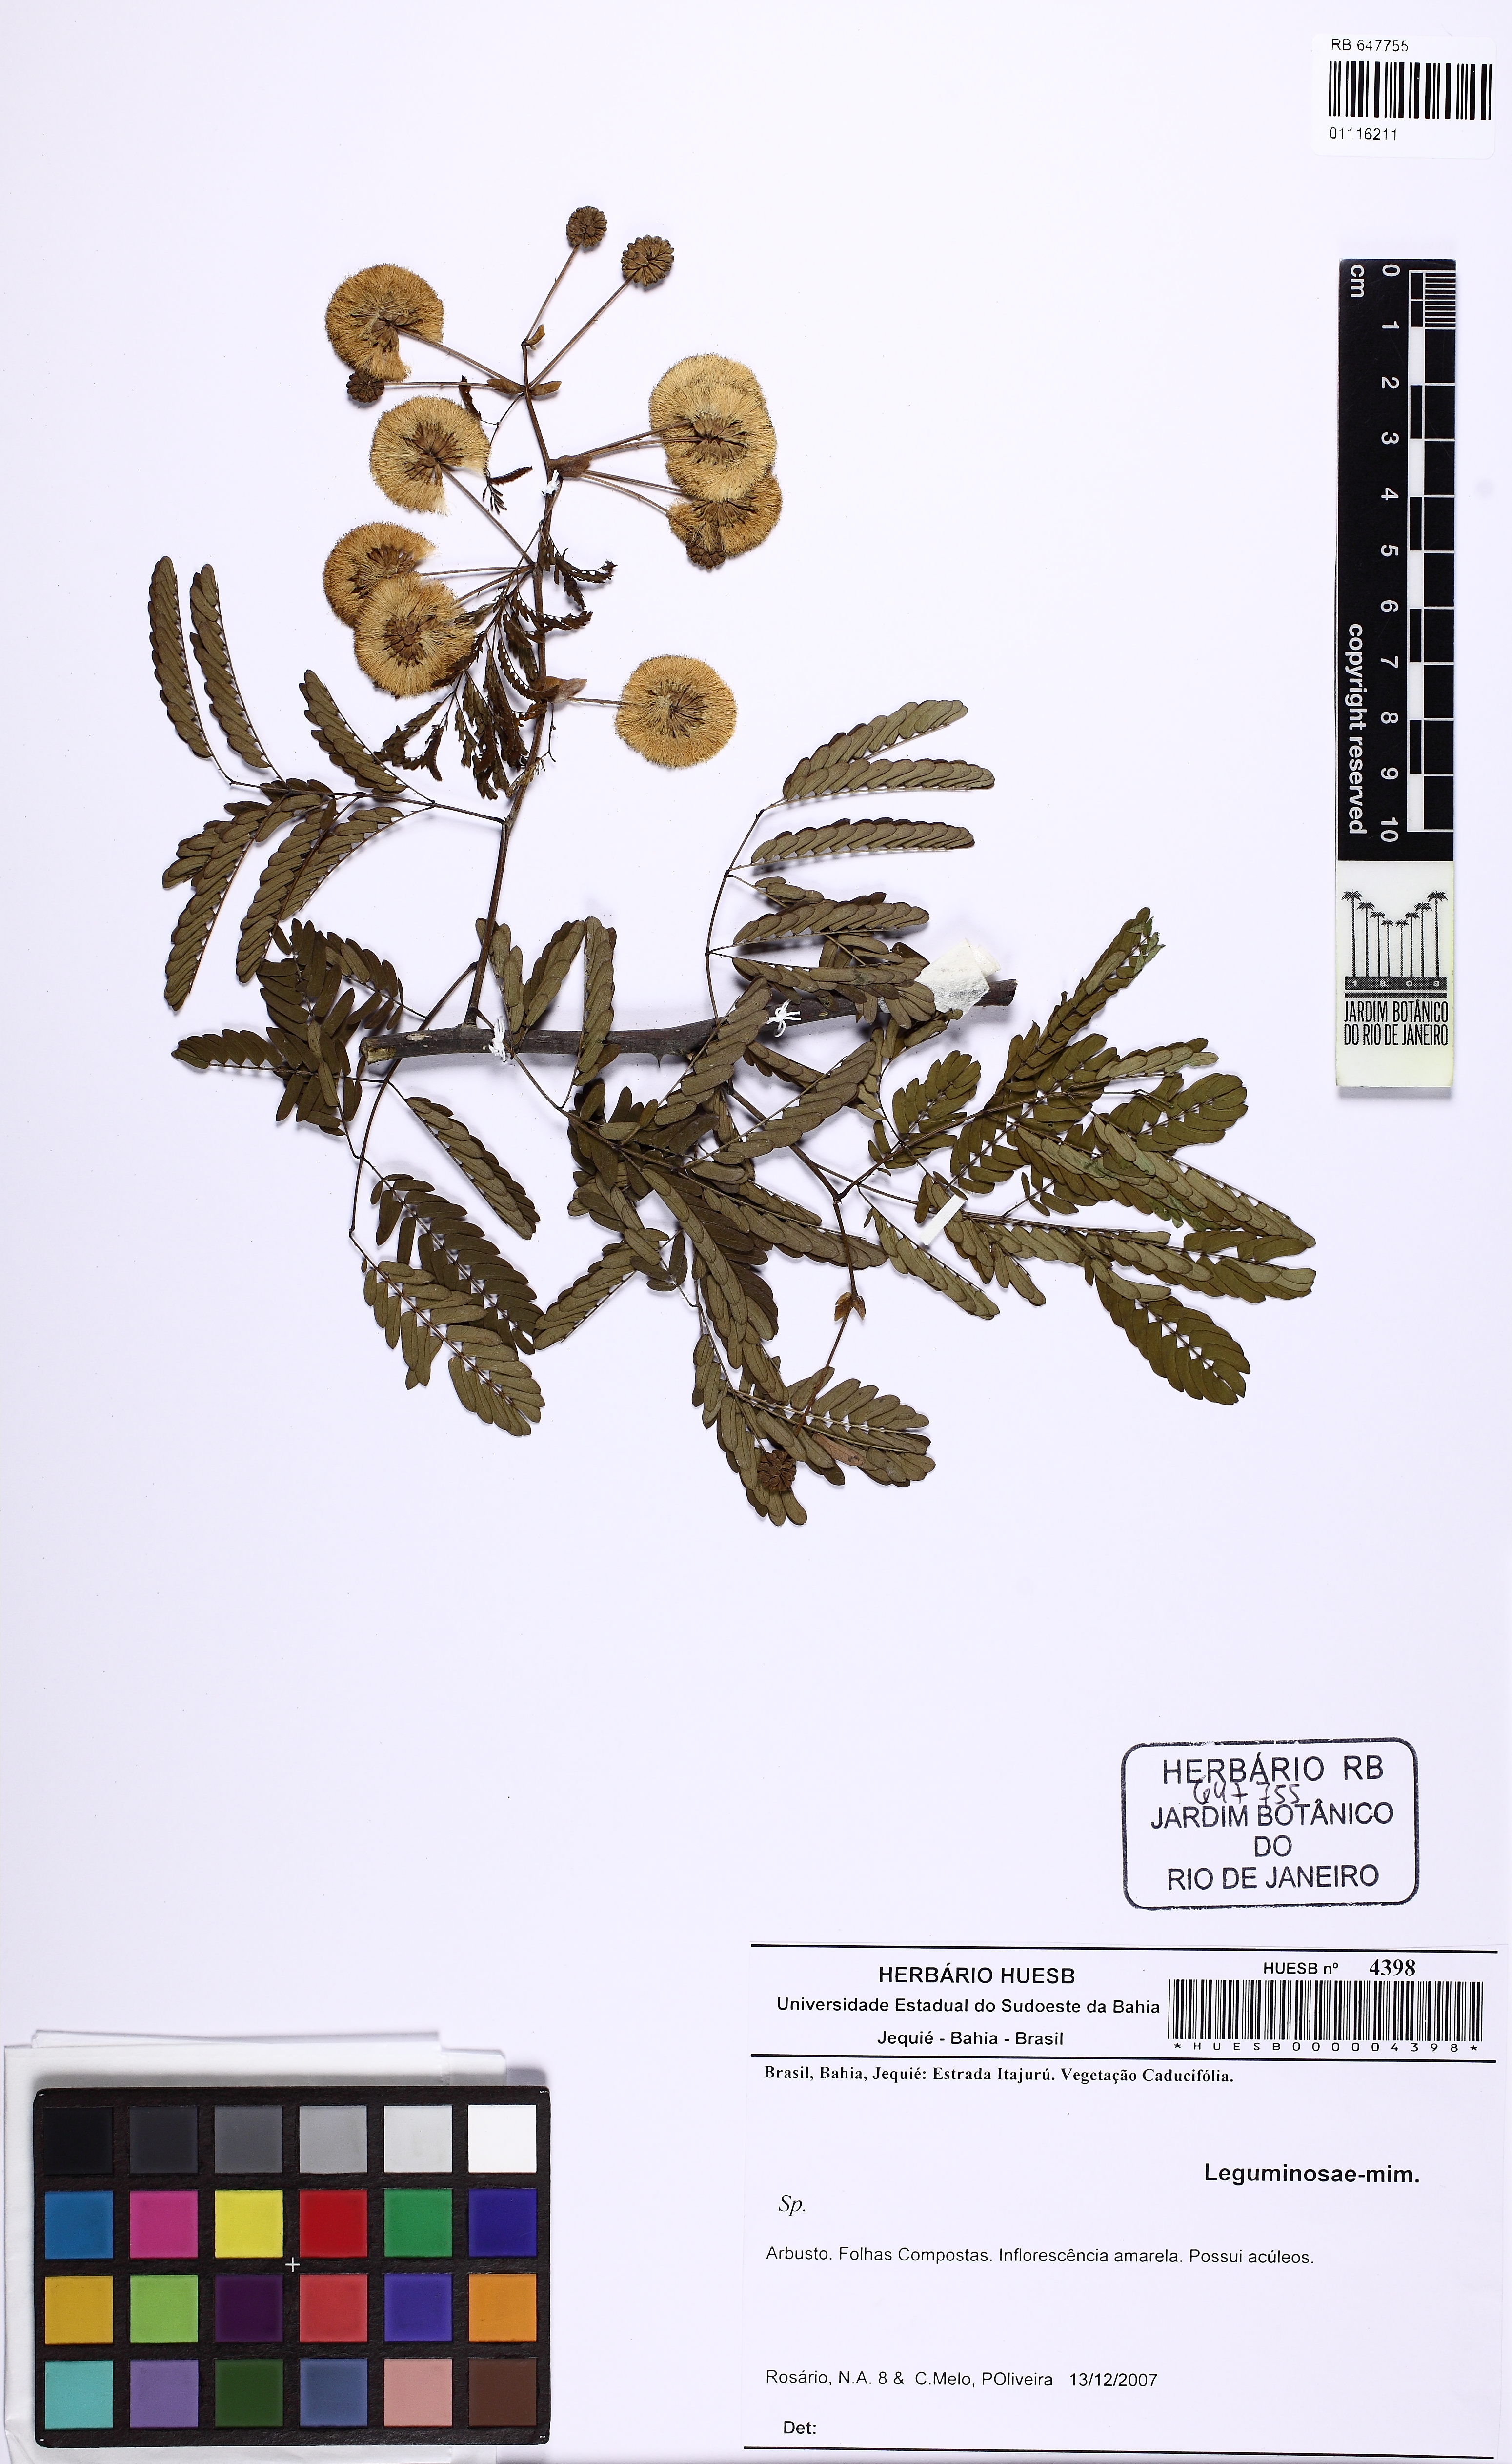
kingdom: Plantae
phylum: Tracheophyta
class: Magnoliopsida
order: Fabales
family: Fabaceae
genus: Senegalia
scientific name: Senegalia bahiensis
